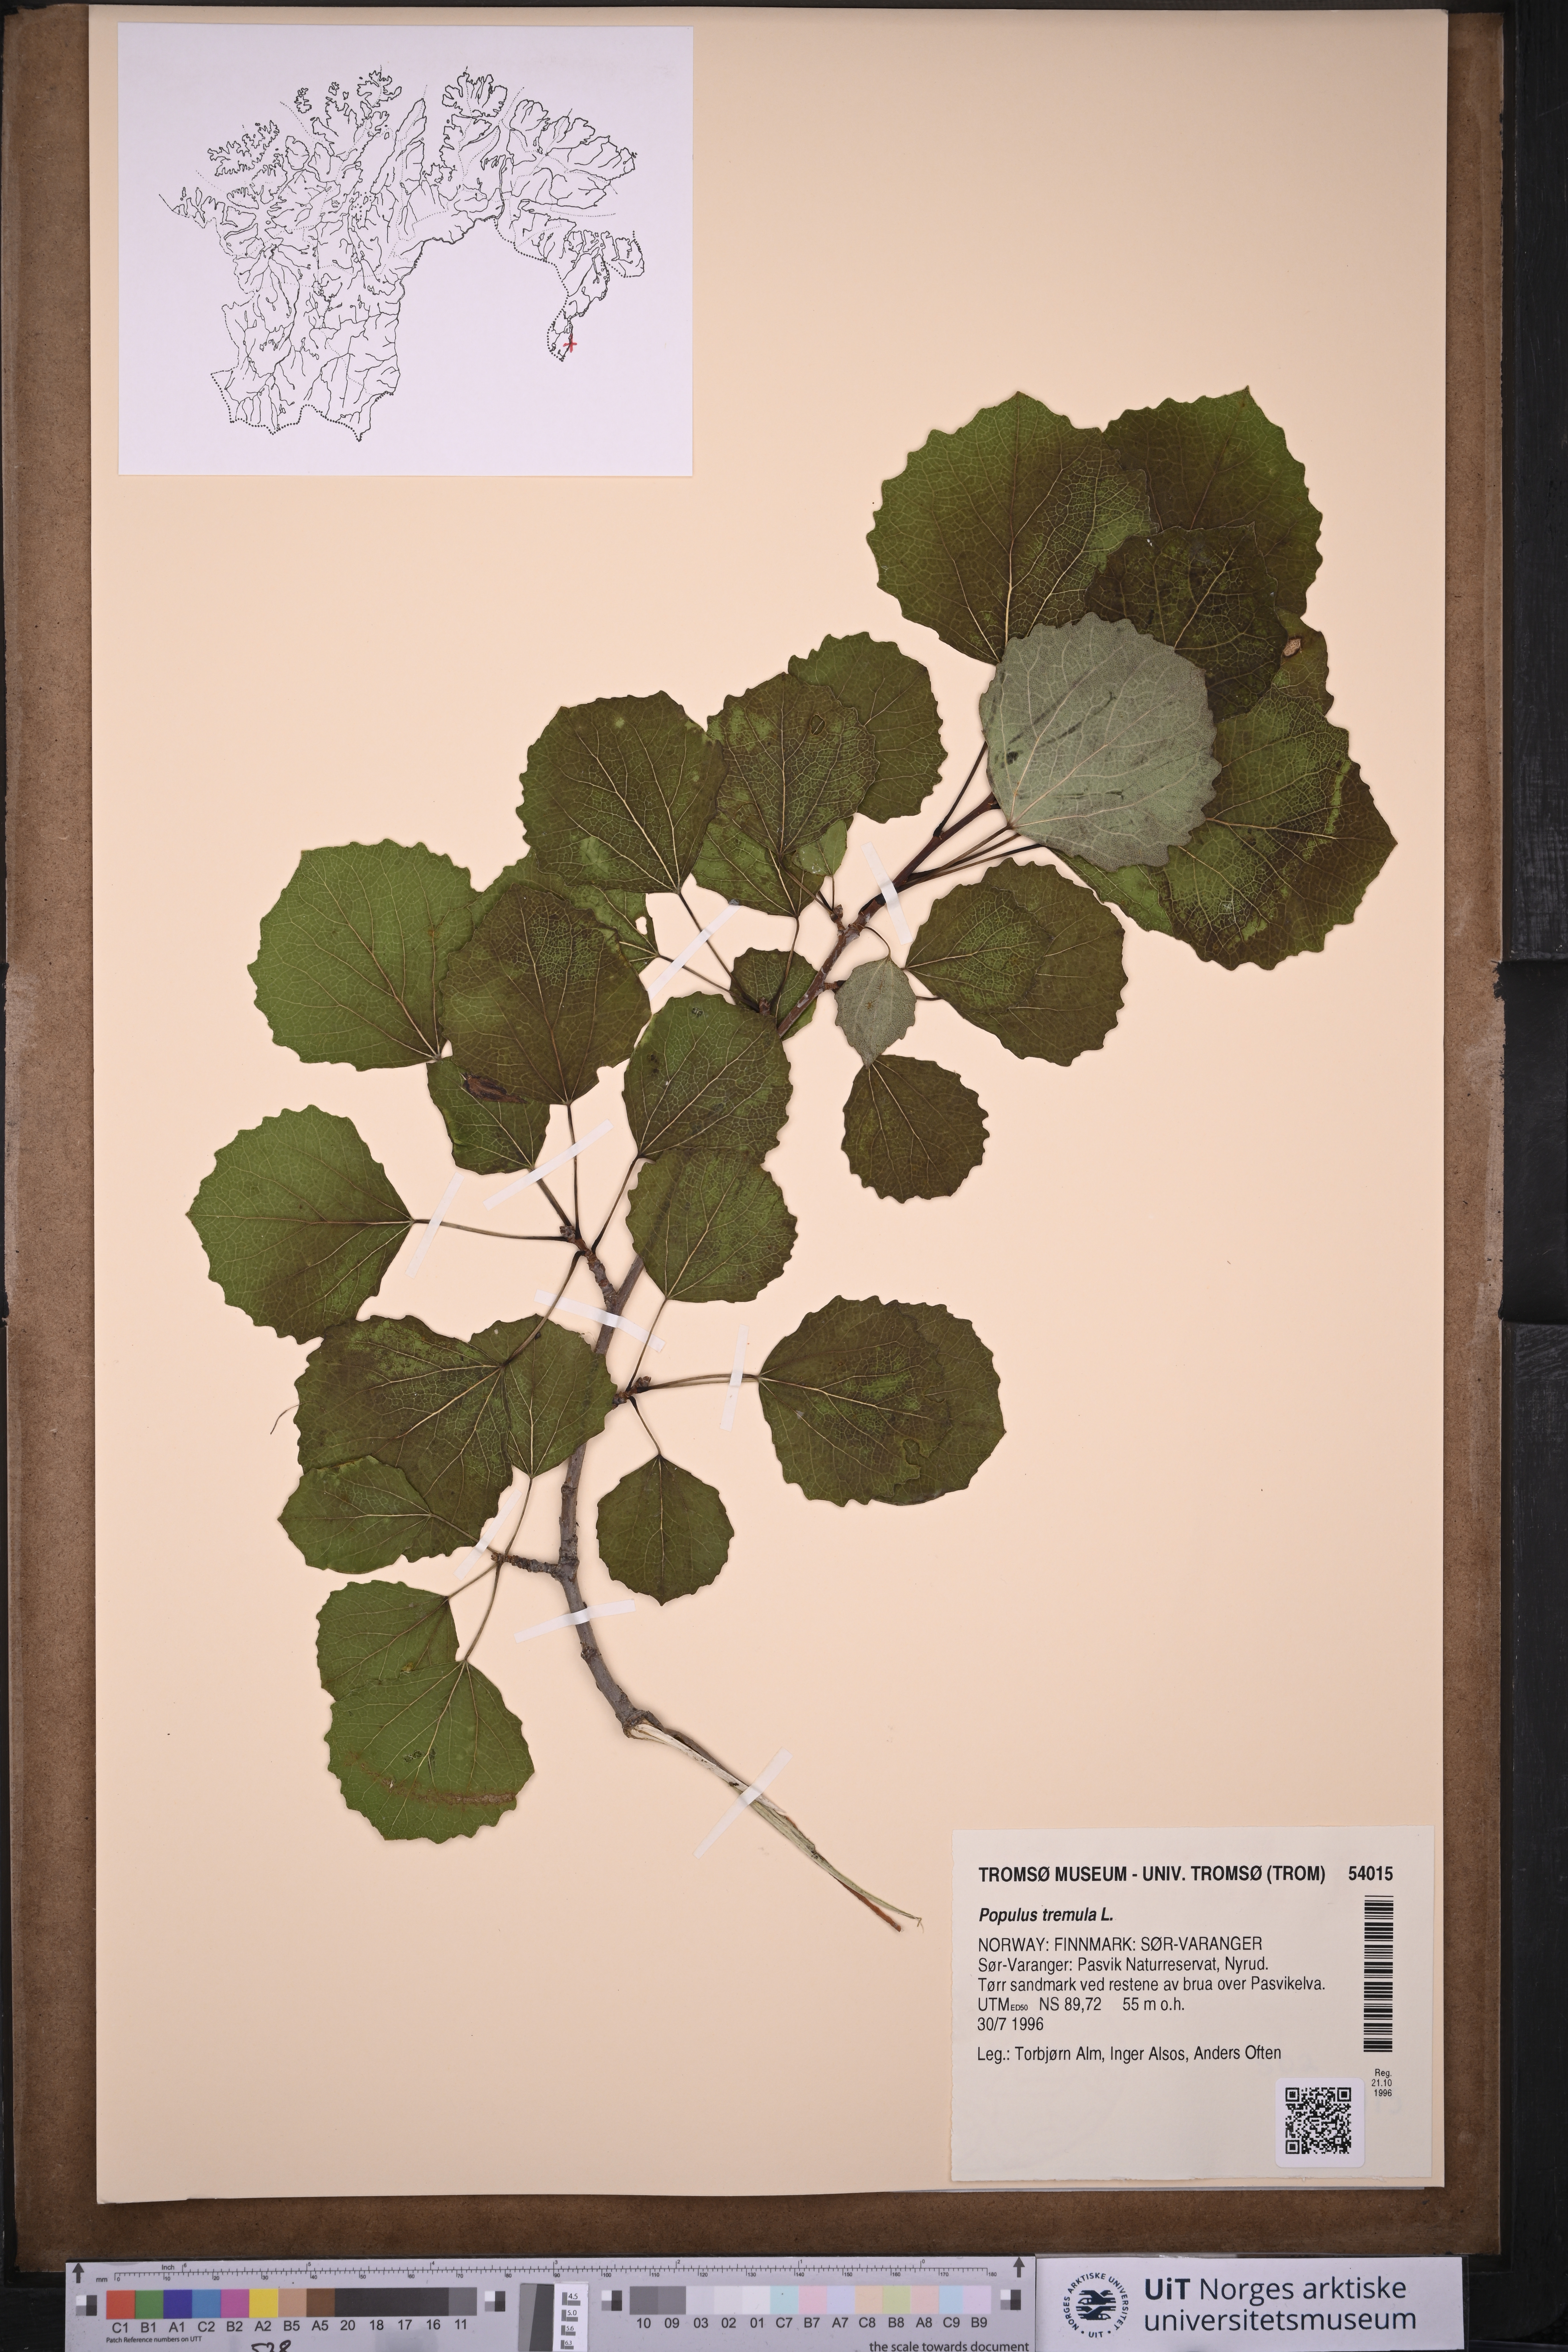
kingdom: Plantae
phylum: Tracheophyta
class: Magnoliopsida
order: Malpighiales
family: Salicaceae
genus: Populus
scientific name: Populus tremula
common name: European aspen
